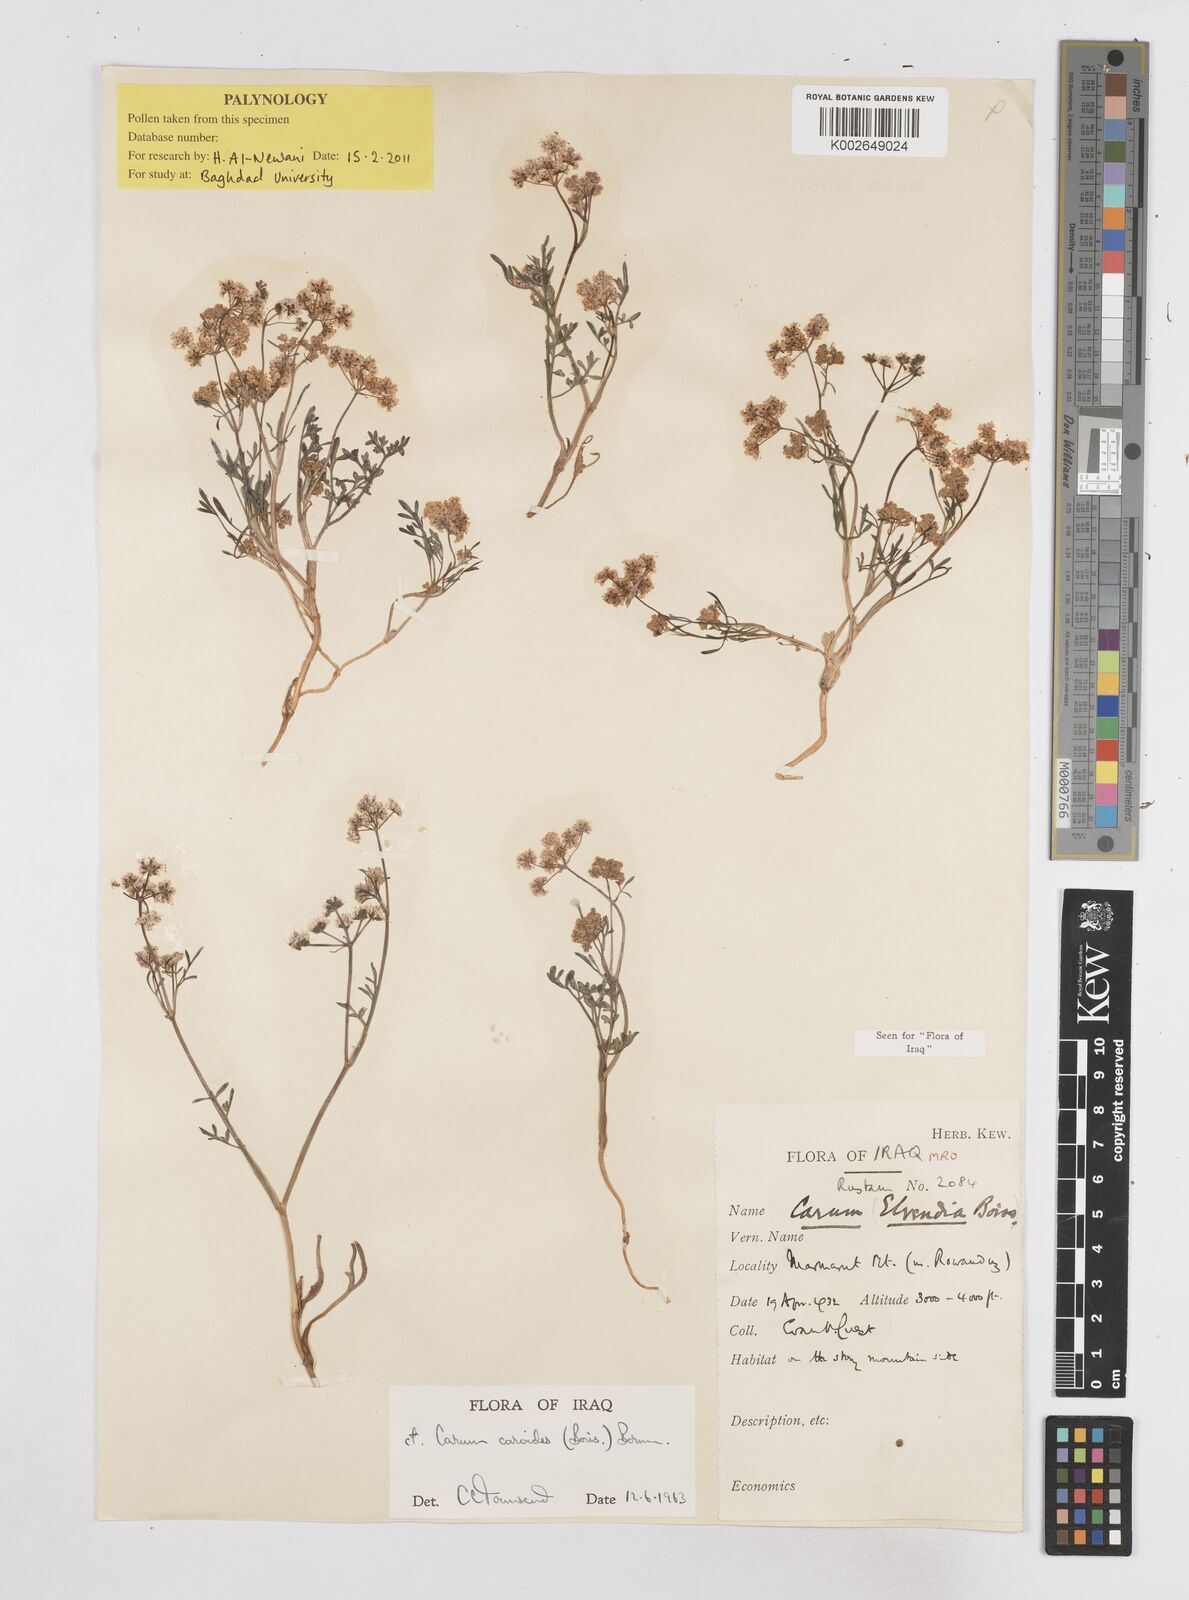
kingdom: Plantae
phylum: Tracheophyta
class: Magnoliopsida
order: Apiales
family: Apiaceae
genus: Elwendia
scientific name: Elwendia caroides
